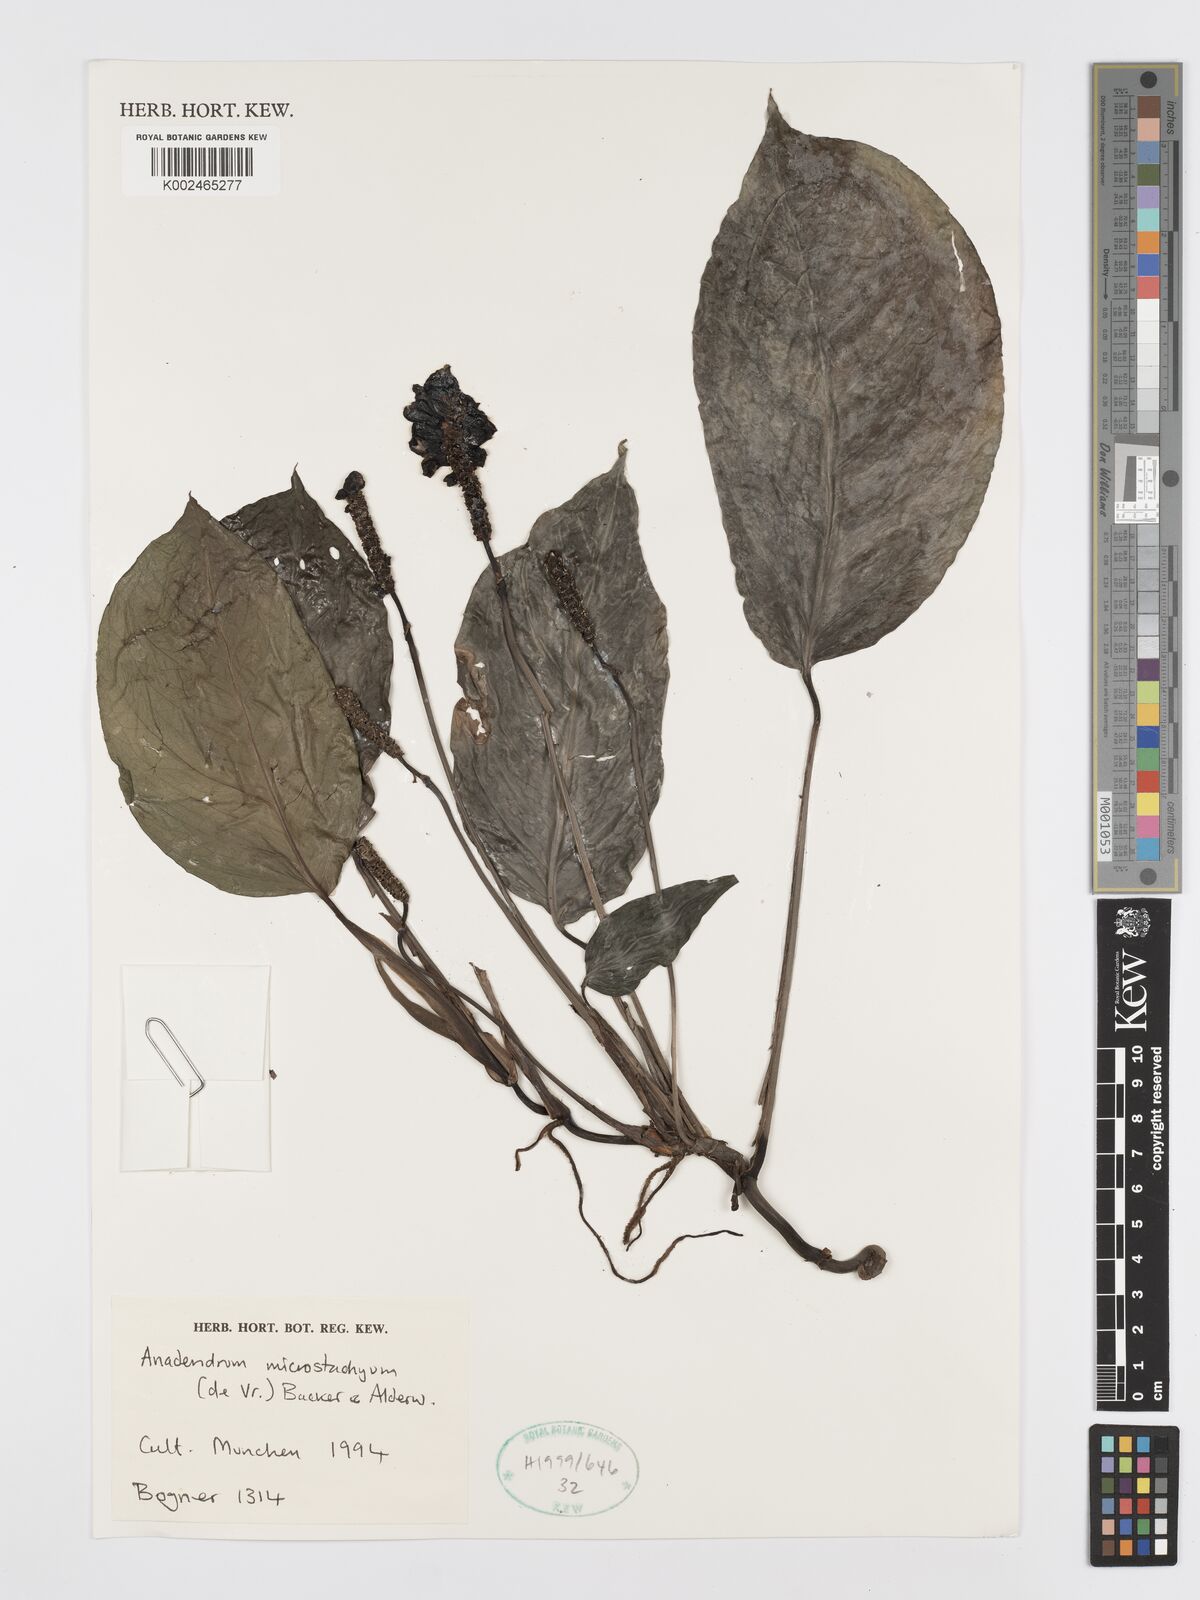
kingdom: Plantae
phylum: Tracheophyta
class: Liliopsida
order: Alismatales
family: Araceae
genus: Anadendrum
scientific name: Anadendrum microstachyum
